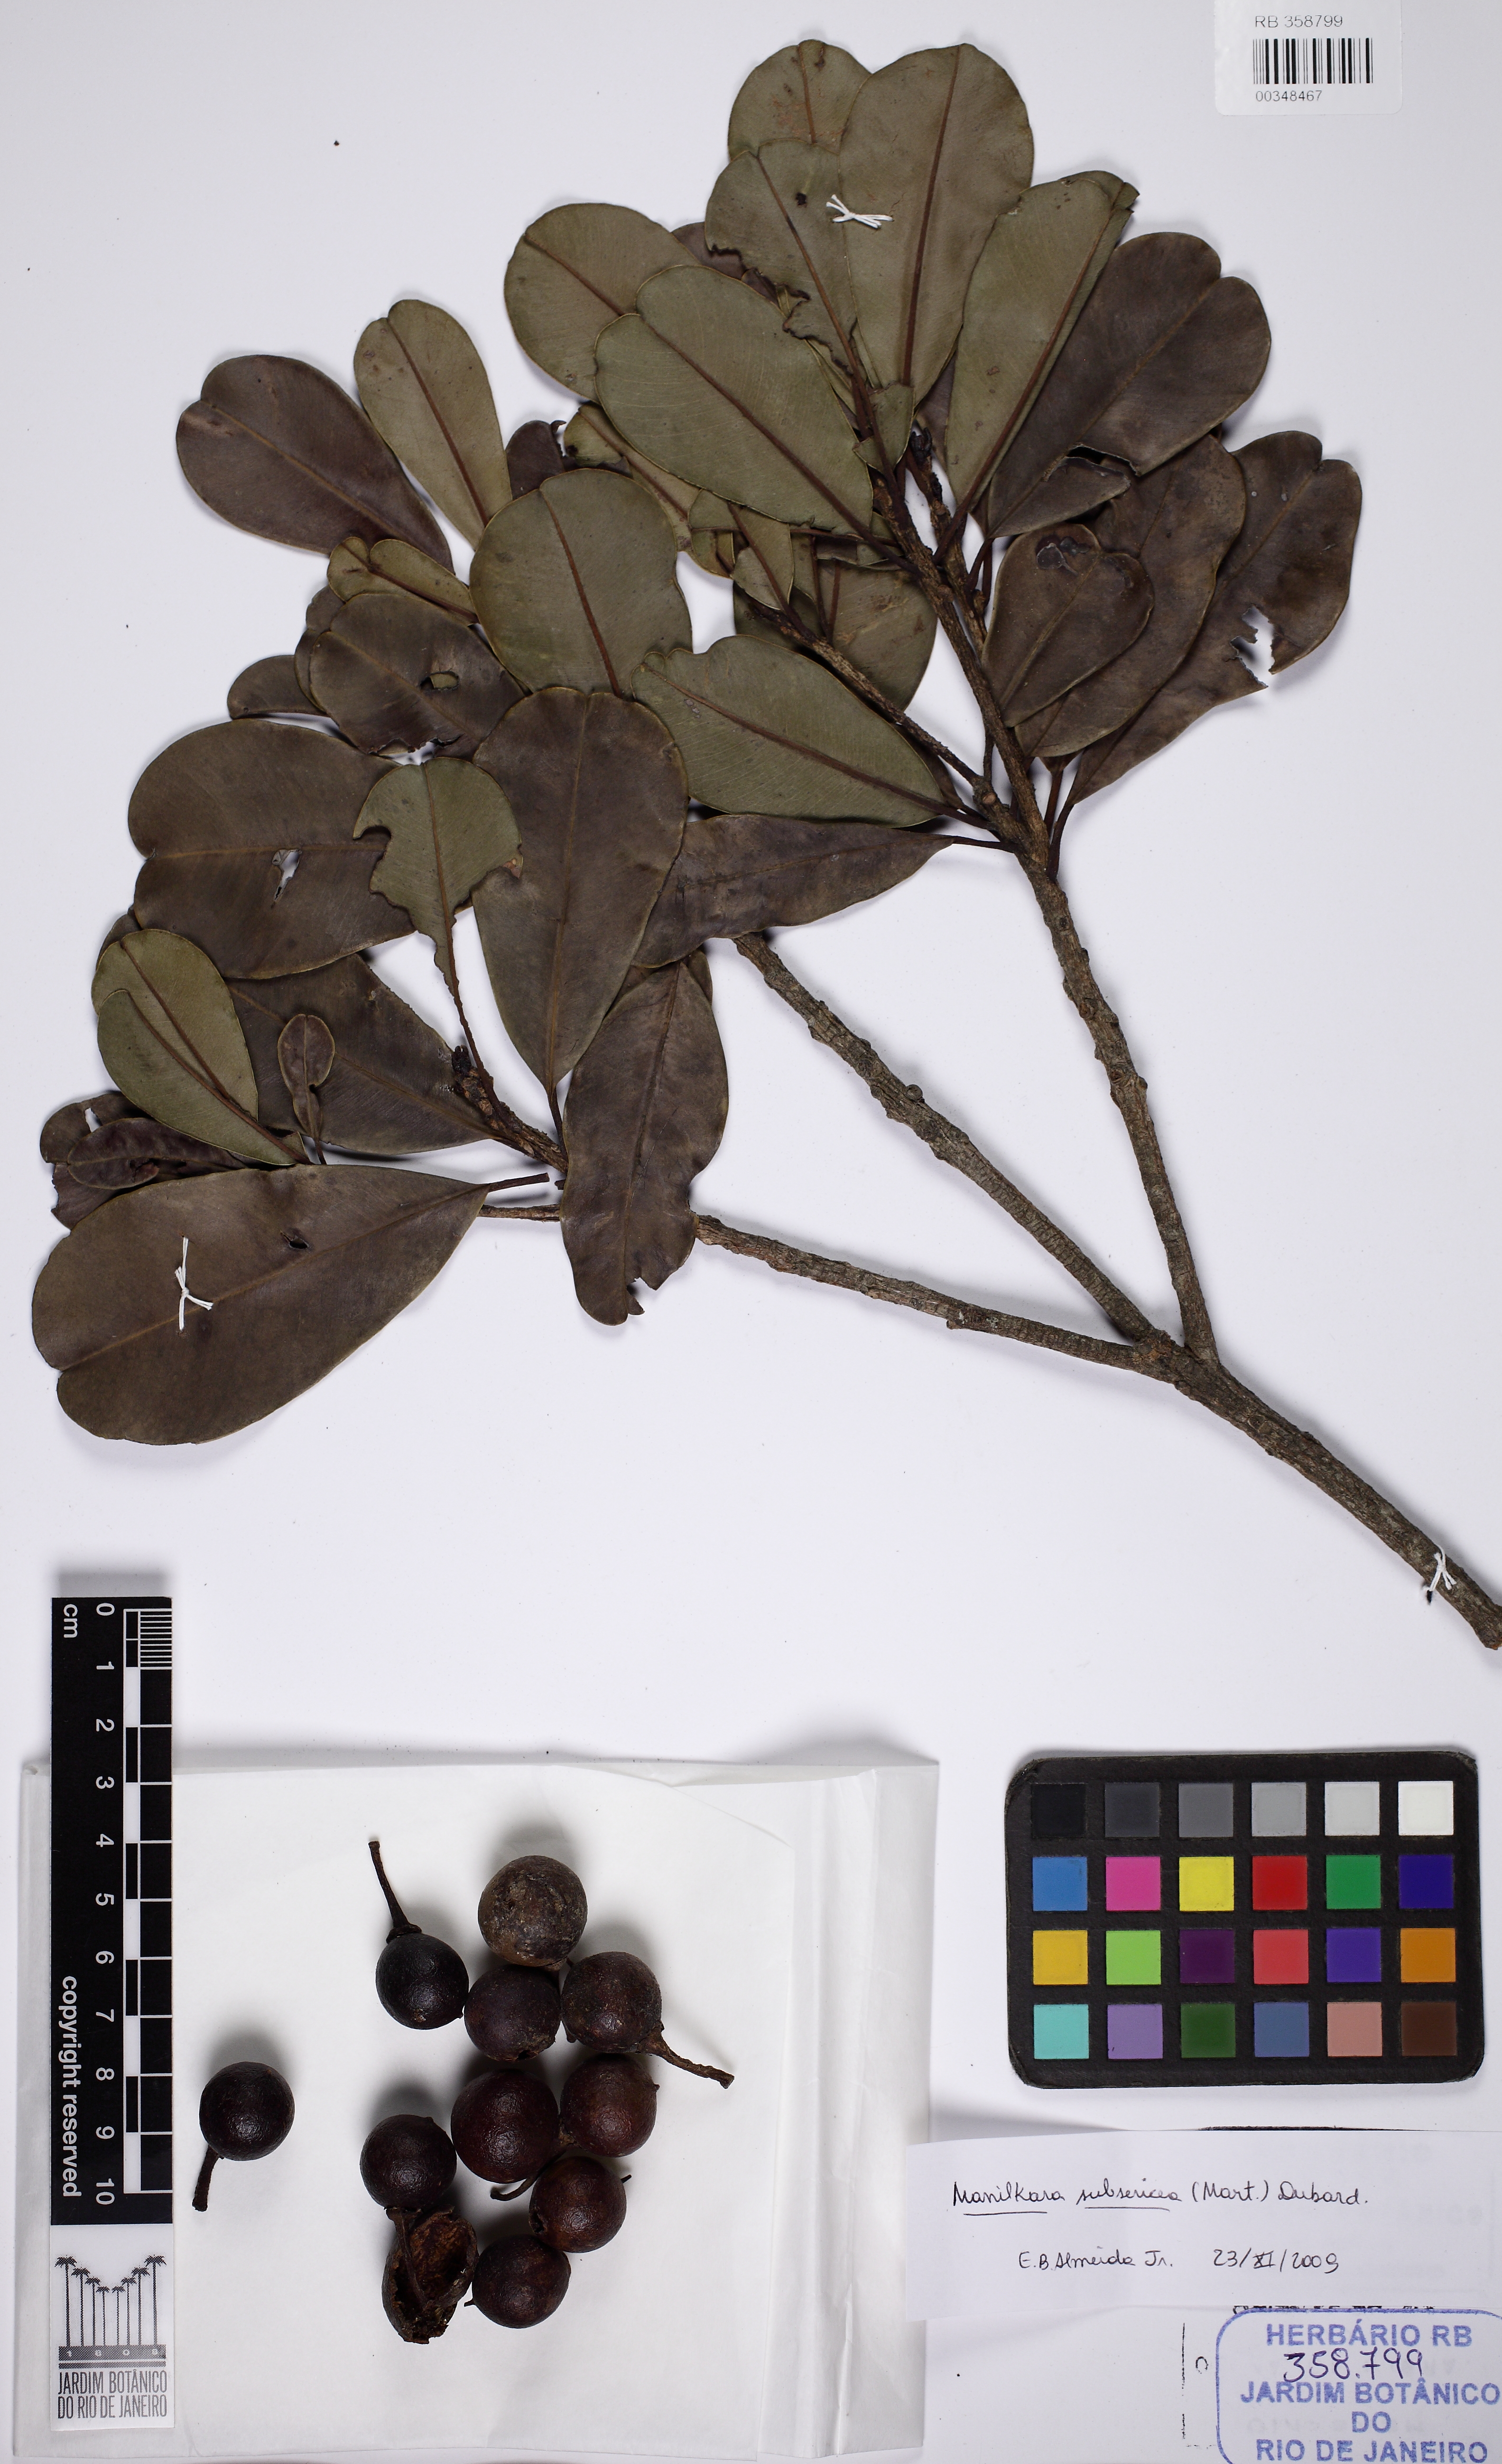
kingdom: Plantae
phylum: Tracheophyta
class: Magnoliopsida
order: Ericales
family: Sapotaceae
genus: Manilkara
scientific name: Manilkara subsericea
